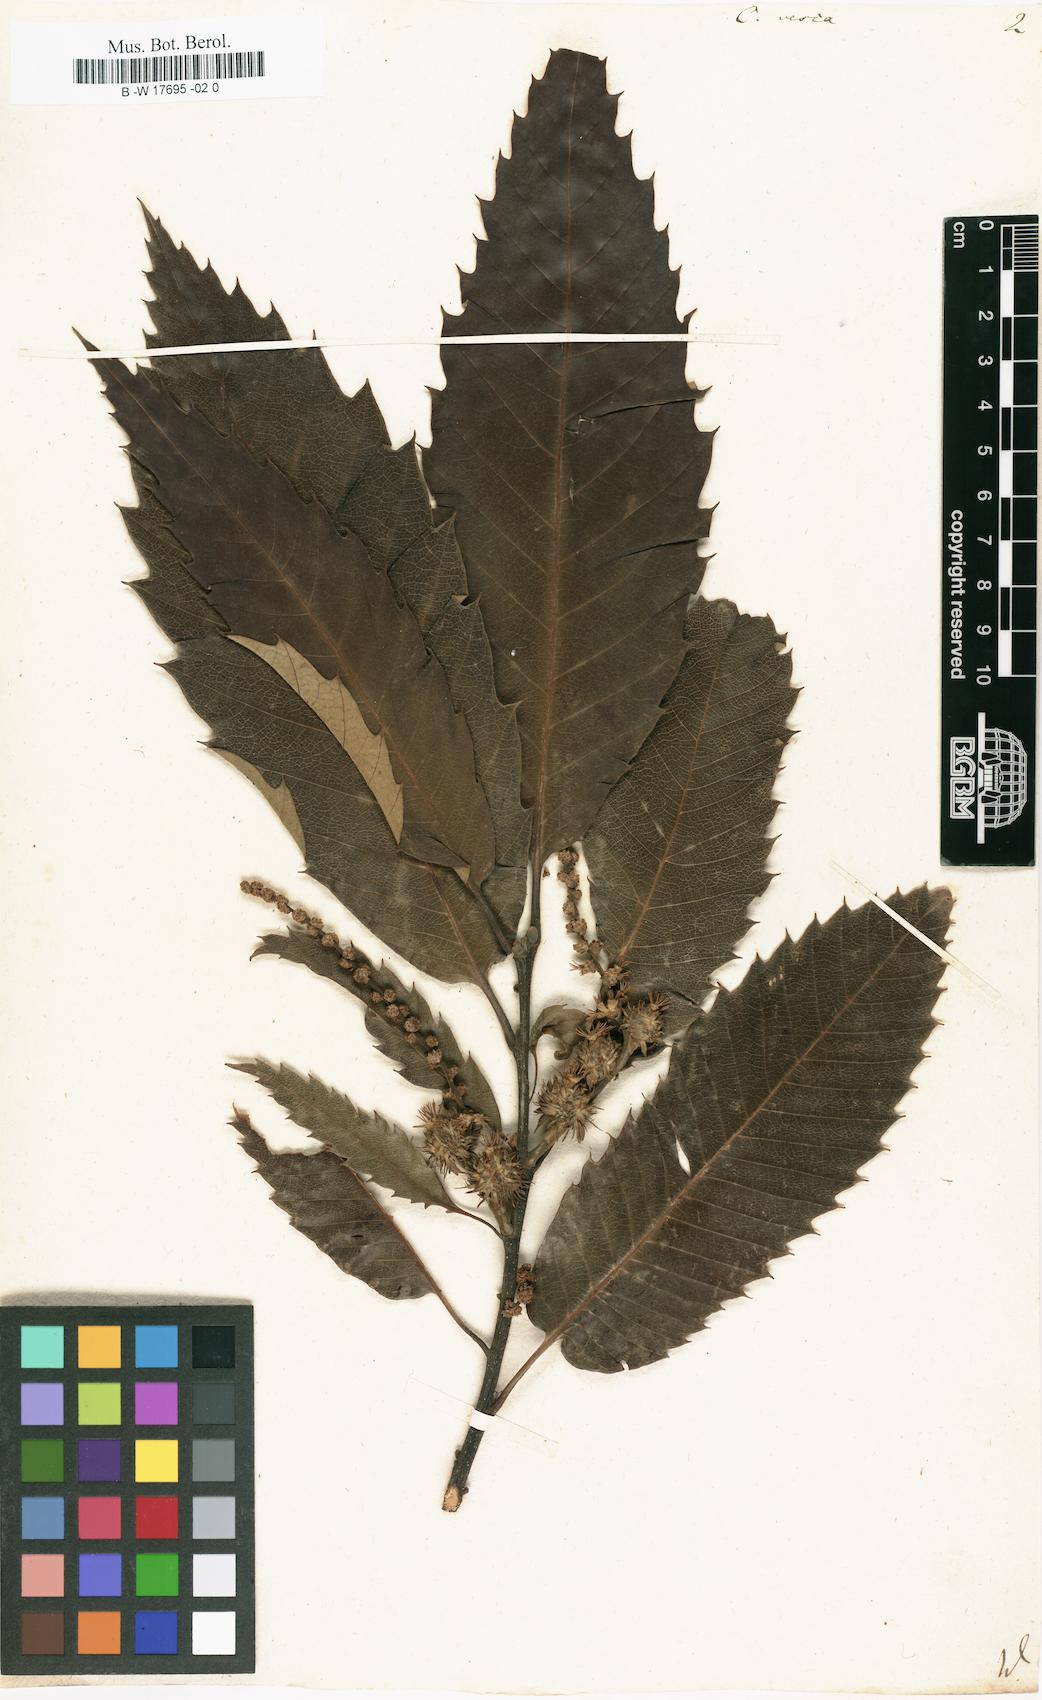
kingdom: Plantae
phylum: Tracheophyta
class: Magnoliopsida
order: Fagales
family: Fagaceae
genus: Castanea
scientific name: Castanea sativa
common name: Sweet chestnut
